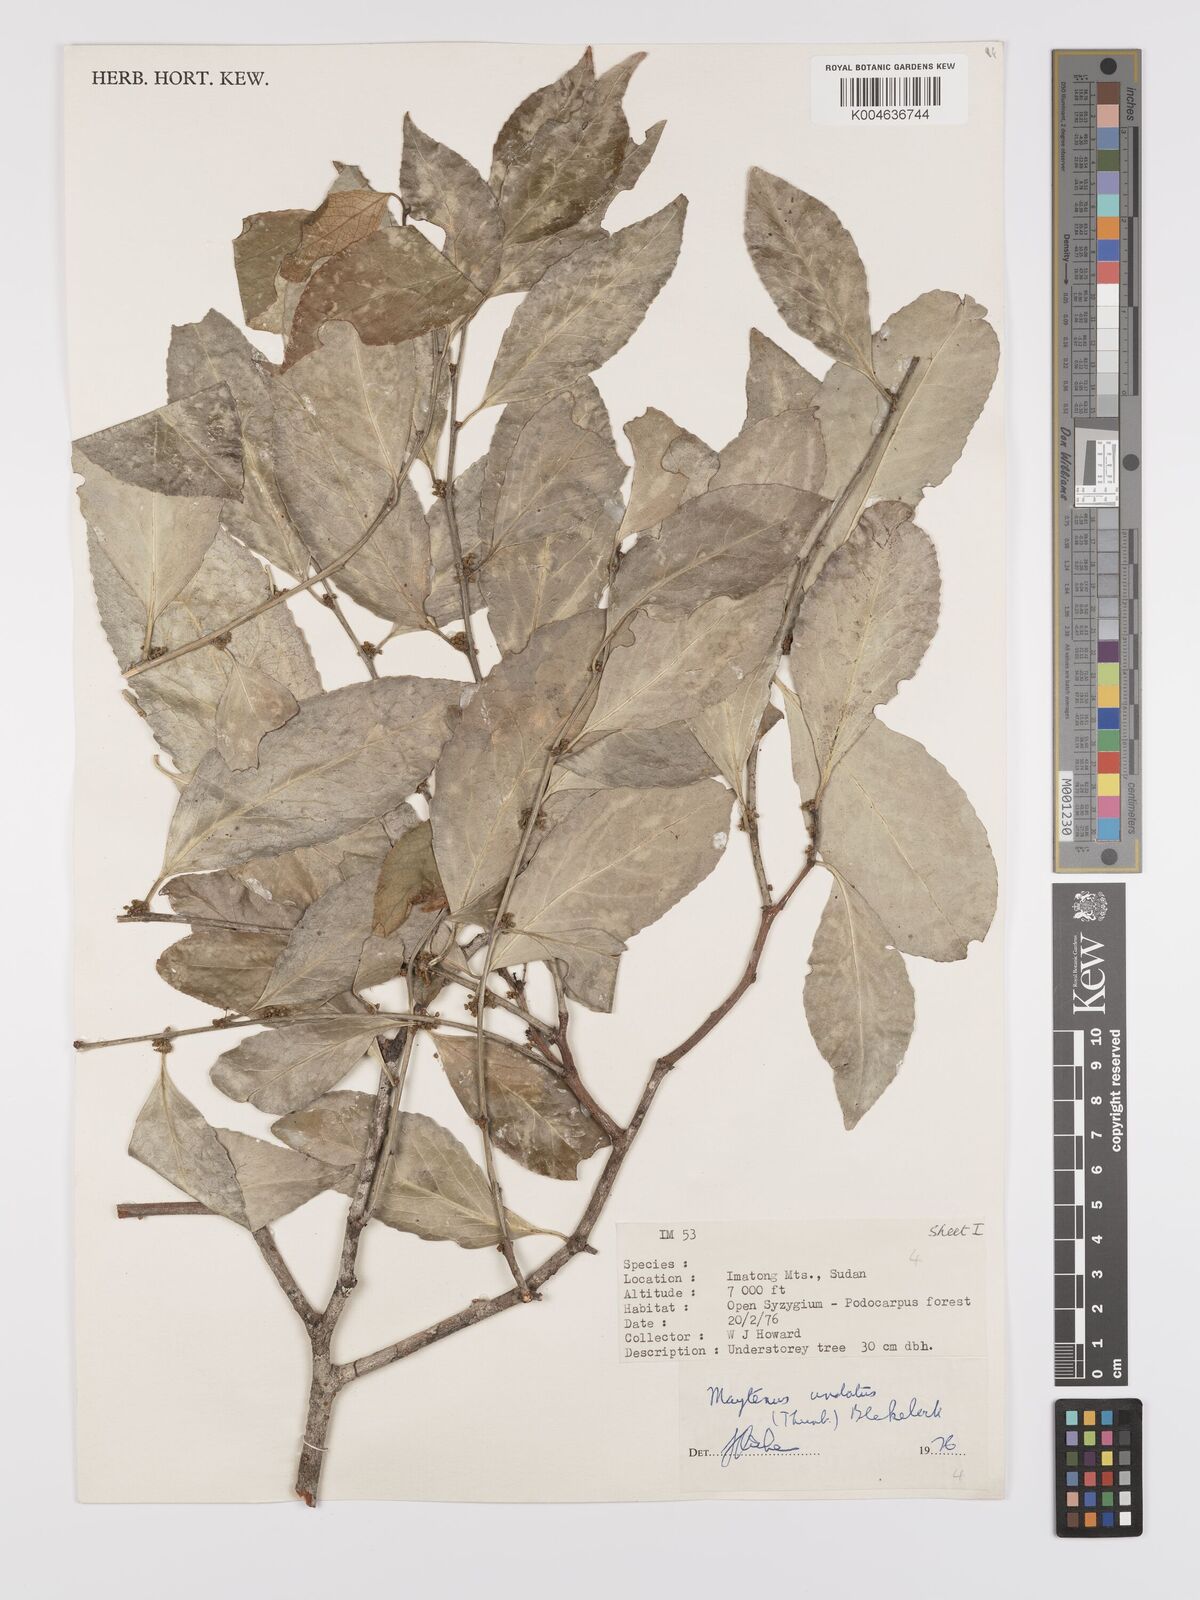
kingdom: Plantae
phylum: Tracheophyta
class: Magnoliopsida
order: Celastrales
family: Celastraceae
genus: Gymnosporia
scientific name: Gymnosporia undata
